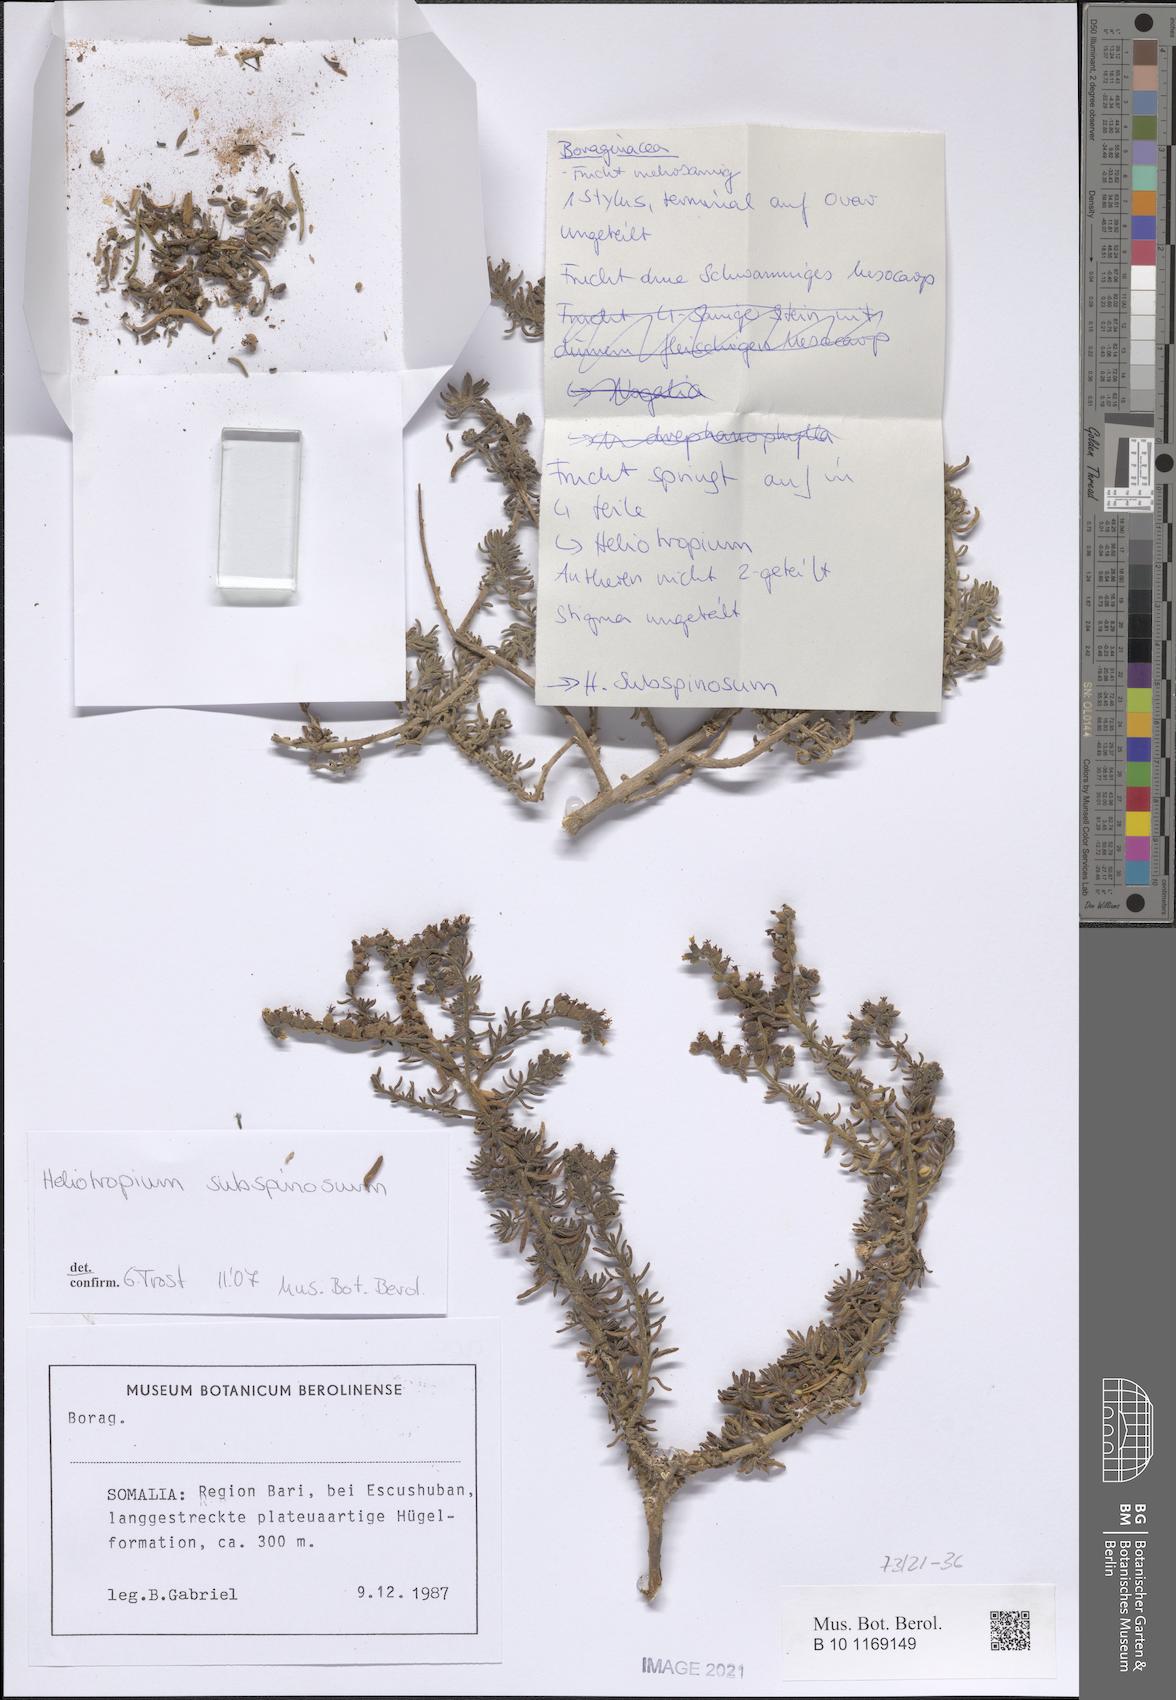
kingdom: Plantae
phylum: Tracheophyta
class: Magnoliopsida
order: Boraginales
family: Heliotropiaceae
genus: Heliotropium
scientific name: Heliotropium drepanophyllum
